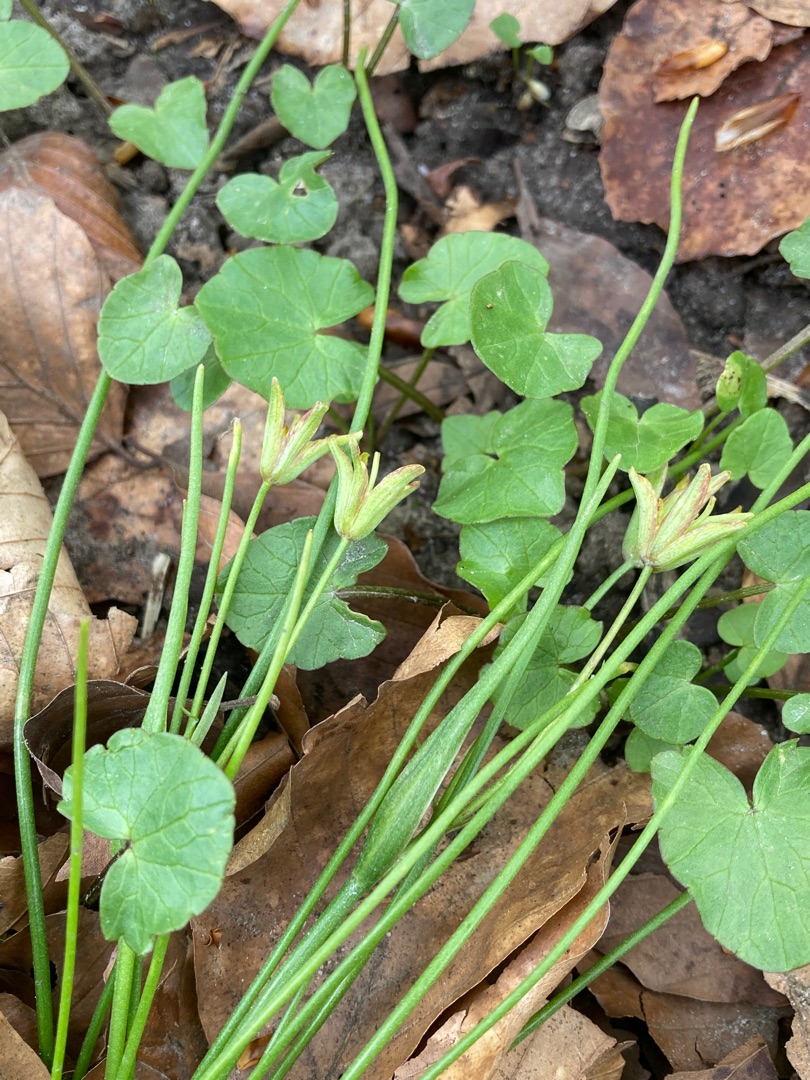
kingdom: Plantae
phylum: Tracheophyta
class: Liliopsida
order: Liliales
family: Liliaceae
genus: Gagea
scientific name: Gagea spathacea
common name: Hylster-guldstjerne
